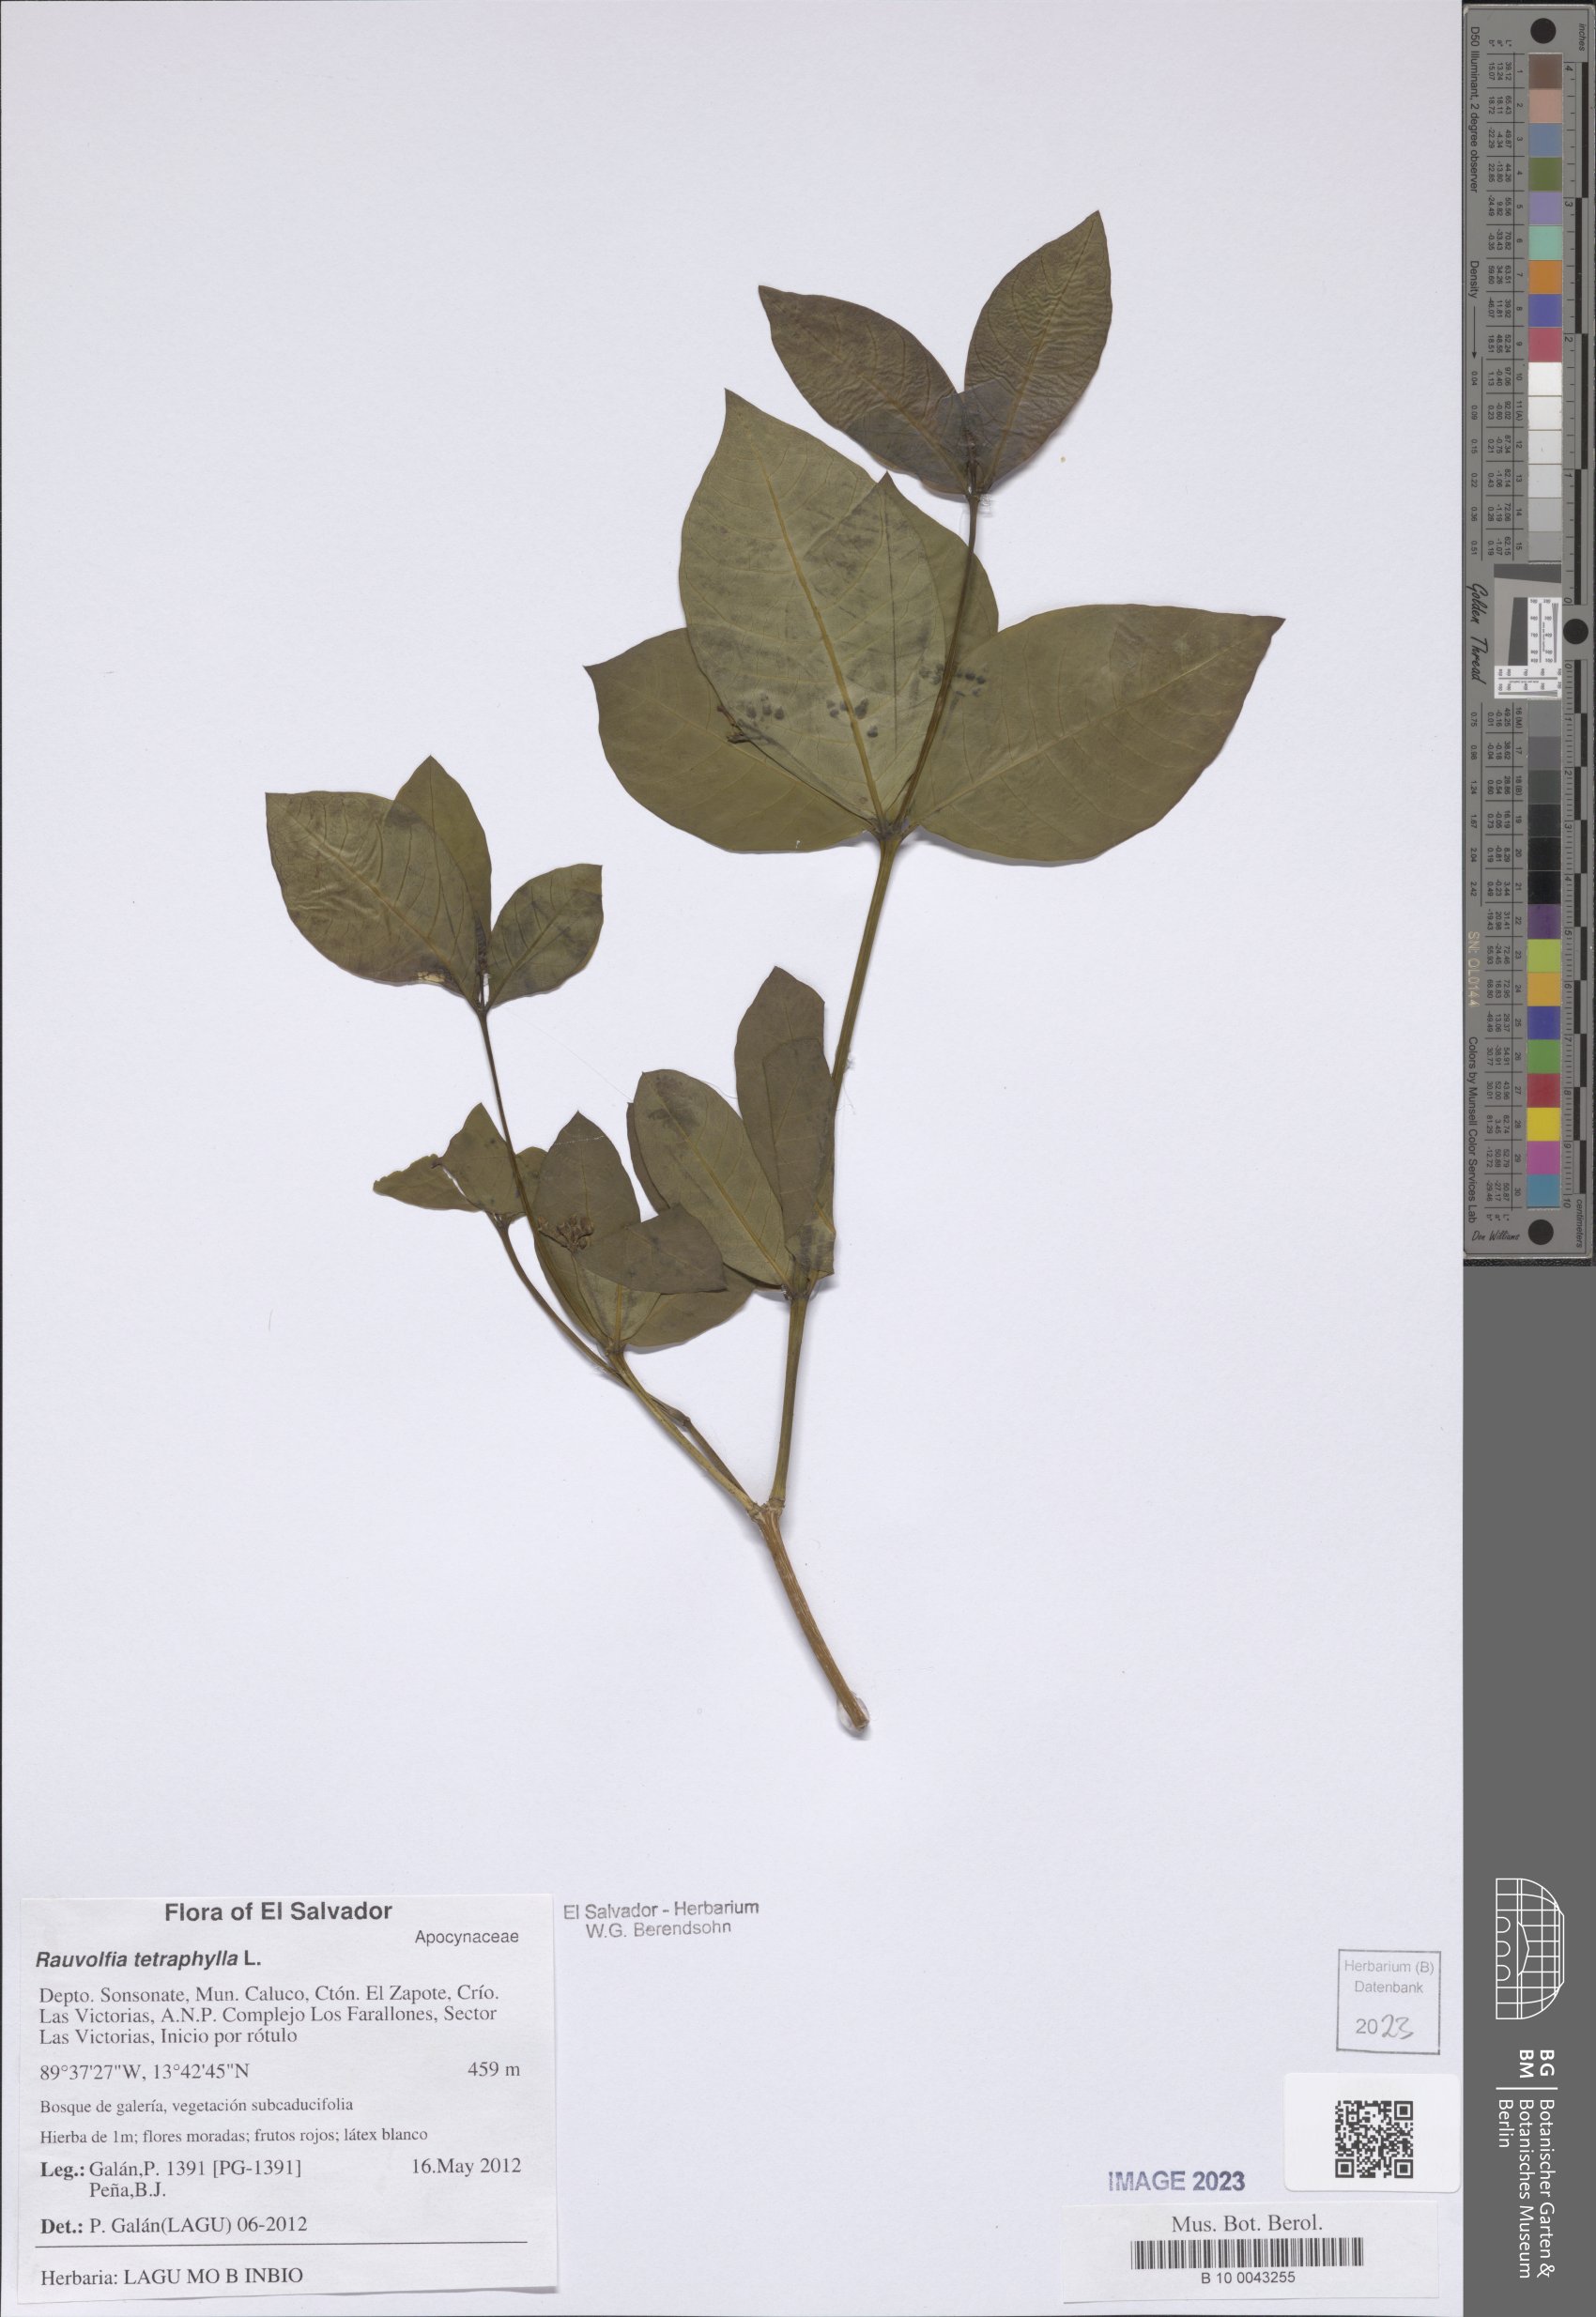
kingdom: Plantae
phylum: Tracheophyta
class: Magnoliopsida
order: Gentianales
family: Apocynaceae
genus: Rauvolfia
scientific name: Rauvolfia tetraphylla
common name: Four-leaf devil-pepper
